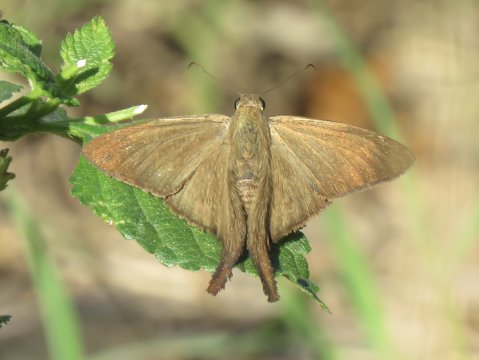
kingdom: Animalia
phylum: Arthropoda
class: Insecta
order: Lepidoptera
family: Hesperiidae
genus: Urbanus
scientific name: Urbanus procne
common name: Brown Longtail
